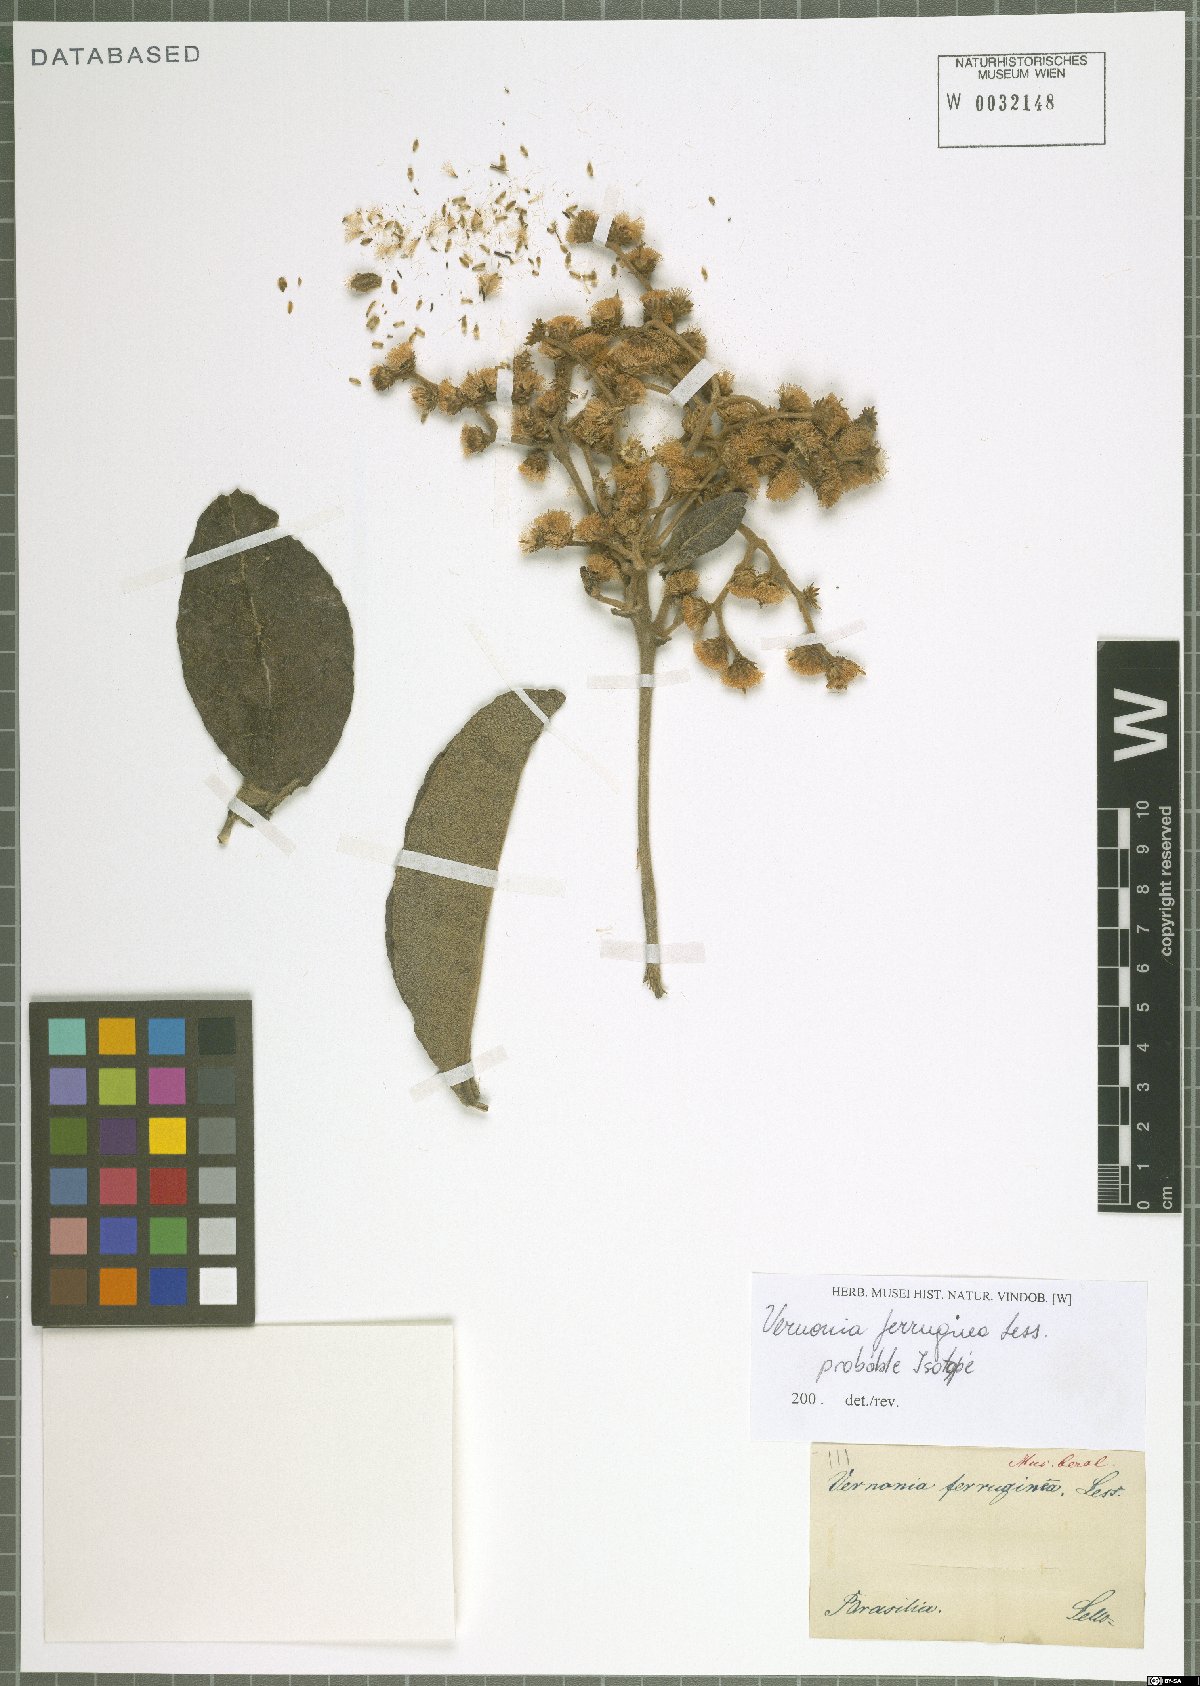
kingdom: Plantae
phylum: Tracheophyta
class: Magnoliopsida
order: Asterales
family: Asteraceae
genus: Vernonanthura
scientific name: Vernonanthura ferruginea
